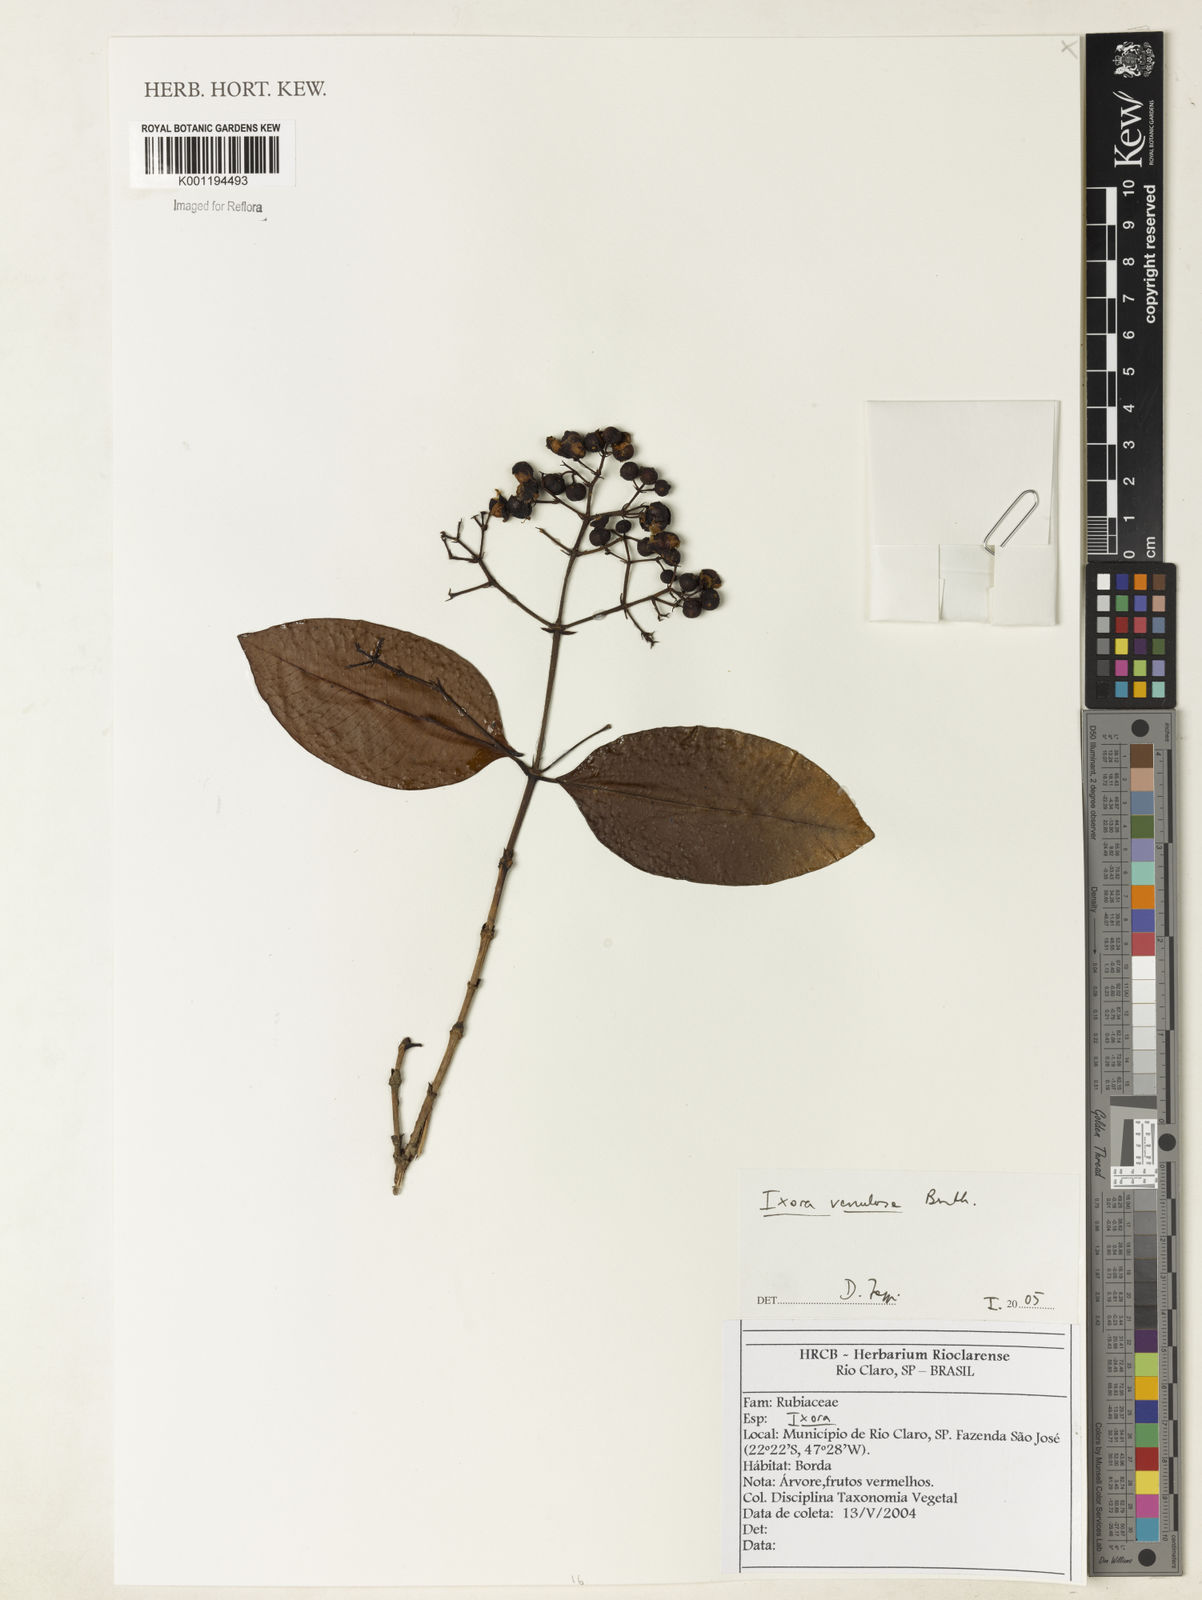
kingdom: Plantae
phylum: Tracheophyta
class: Magnoliopsida
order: Gentianales
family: Rubiaceae
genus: Ixora
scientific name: Ixora venulosa
